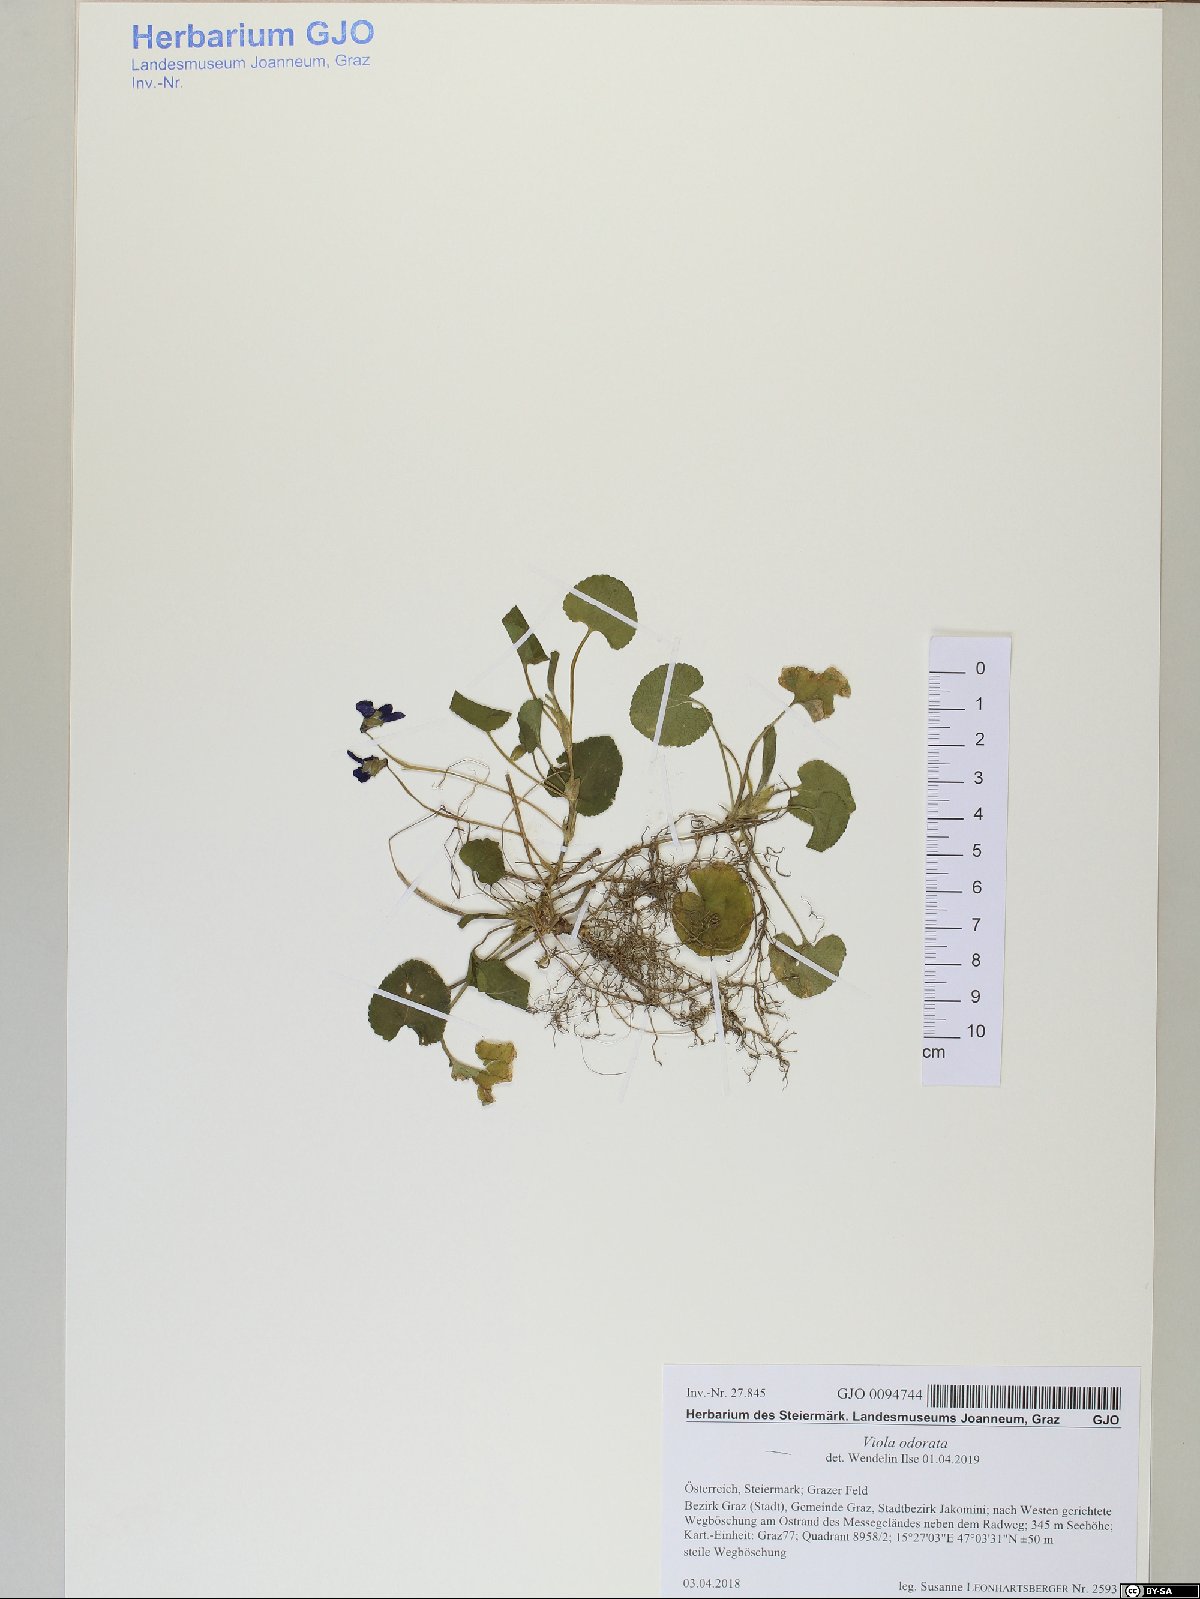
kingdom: Plantae
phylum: Tracheophyta
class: Magnoliopsida
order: Malpighiales
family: Violaceae
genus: Viola
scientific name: Viola odorata
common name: Sweet violet
